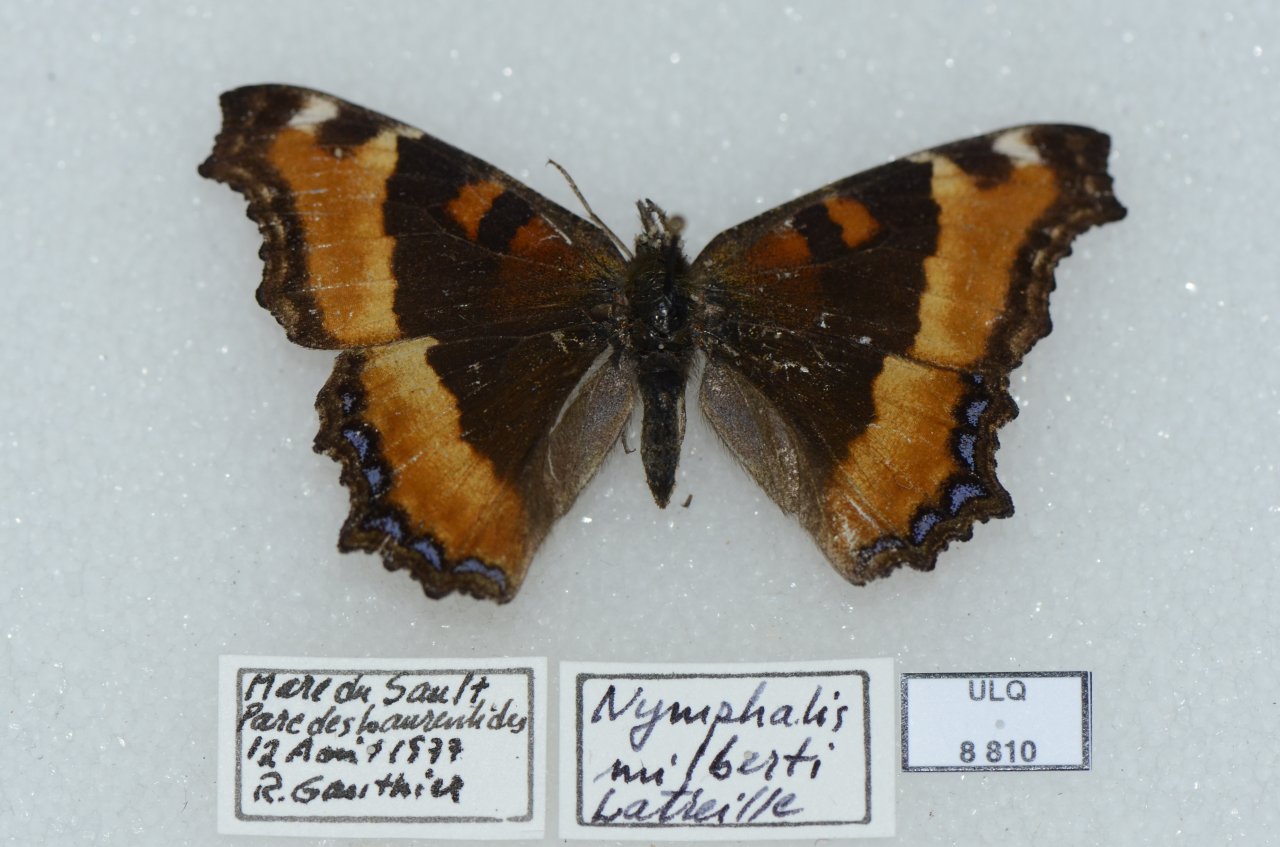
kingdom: Animalia
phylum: Arthropoda
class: Insecta
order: Lepidoptera
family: Nymphalidae
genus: Aglais
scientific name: Aglais milberti
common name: Milbert's Tortoiseshell
